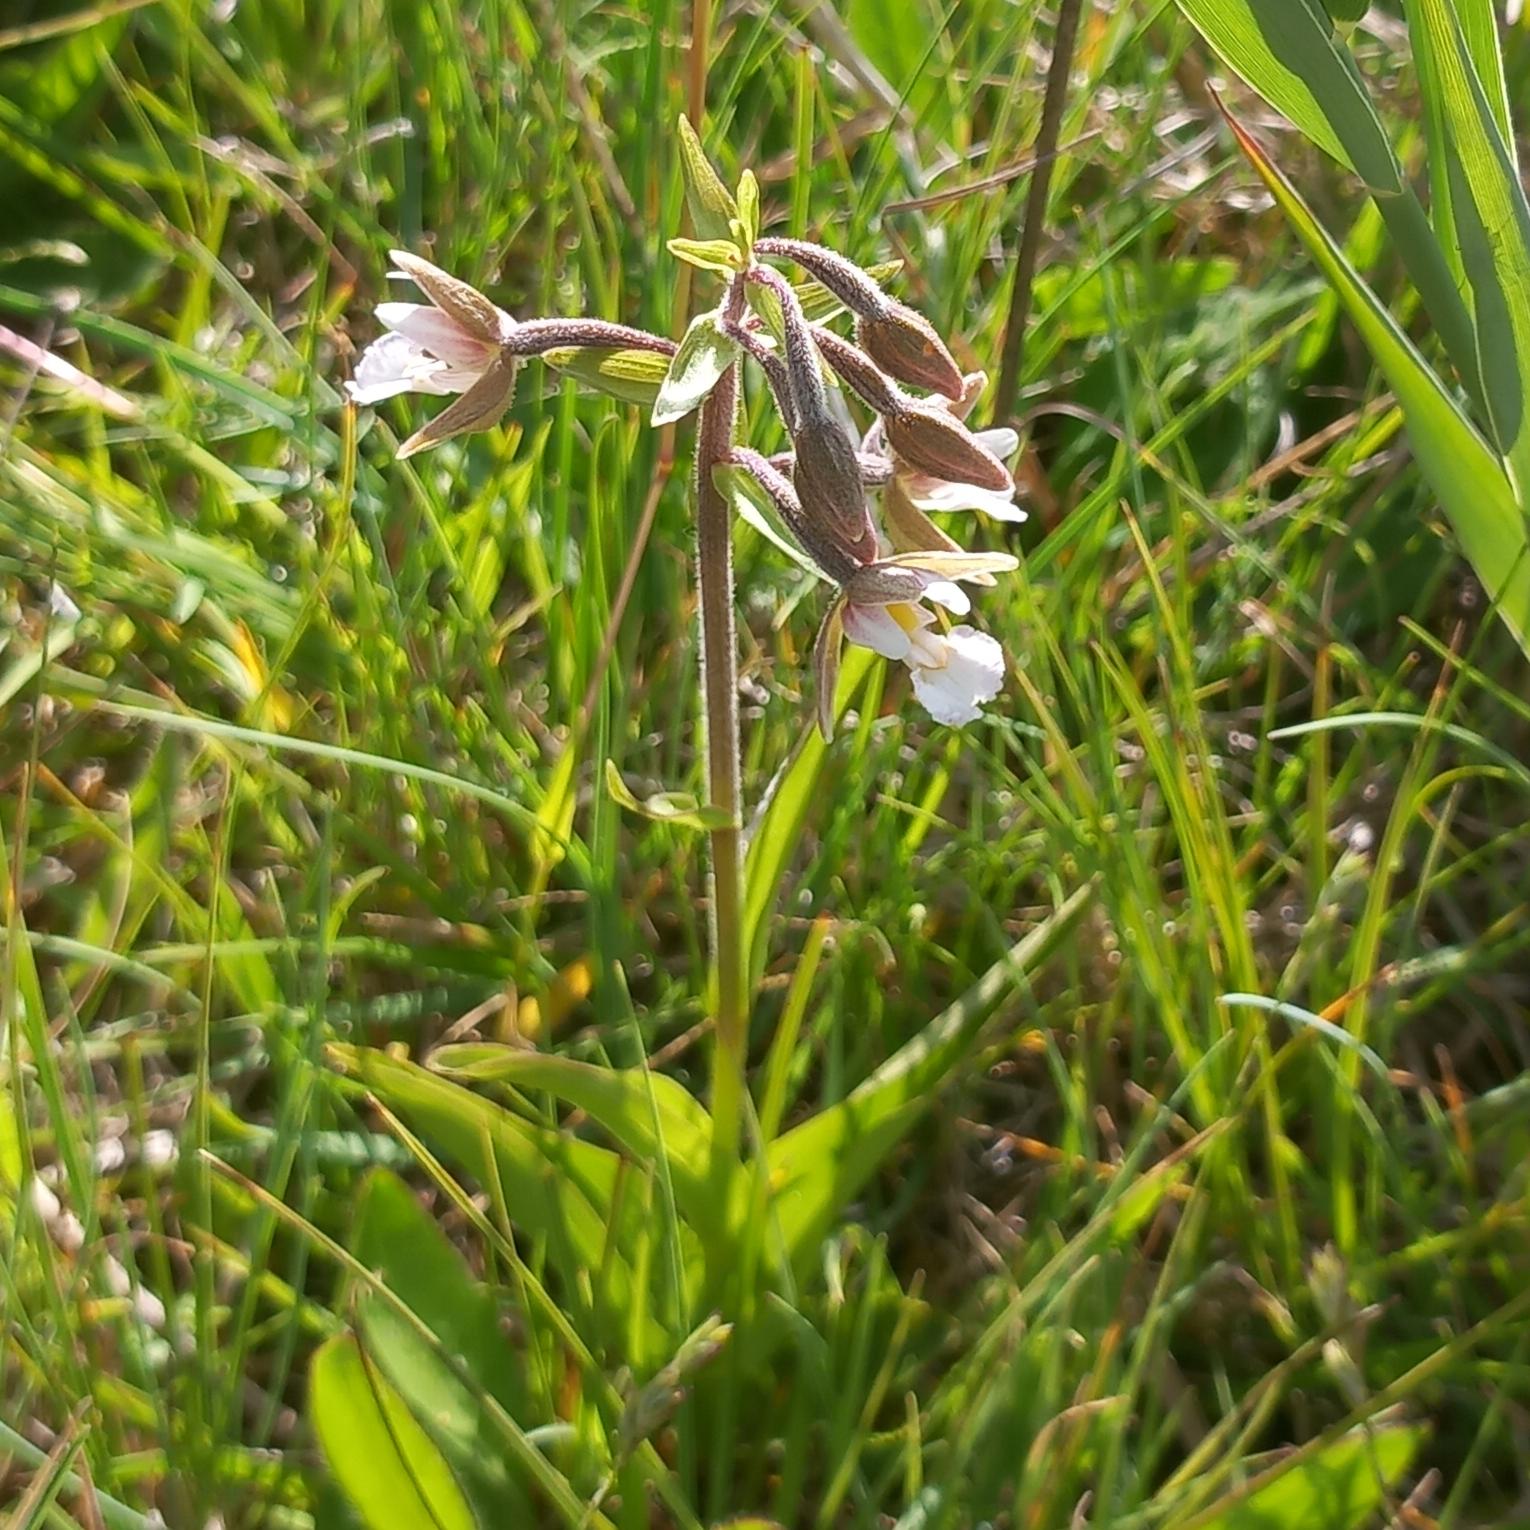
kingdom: Plantae
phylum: Tracheophyta
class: Liliopsida
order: Asparagales
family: Orchidaceae
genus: Epipactis
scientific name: Epipactis palustris
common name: Sump-hullæbe
